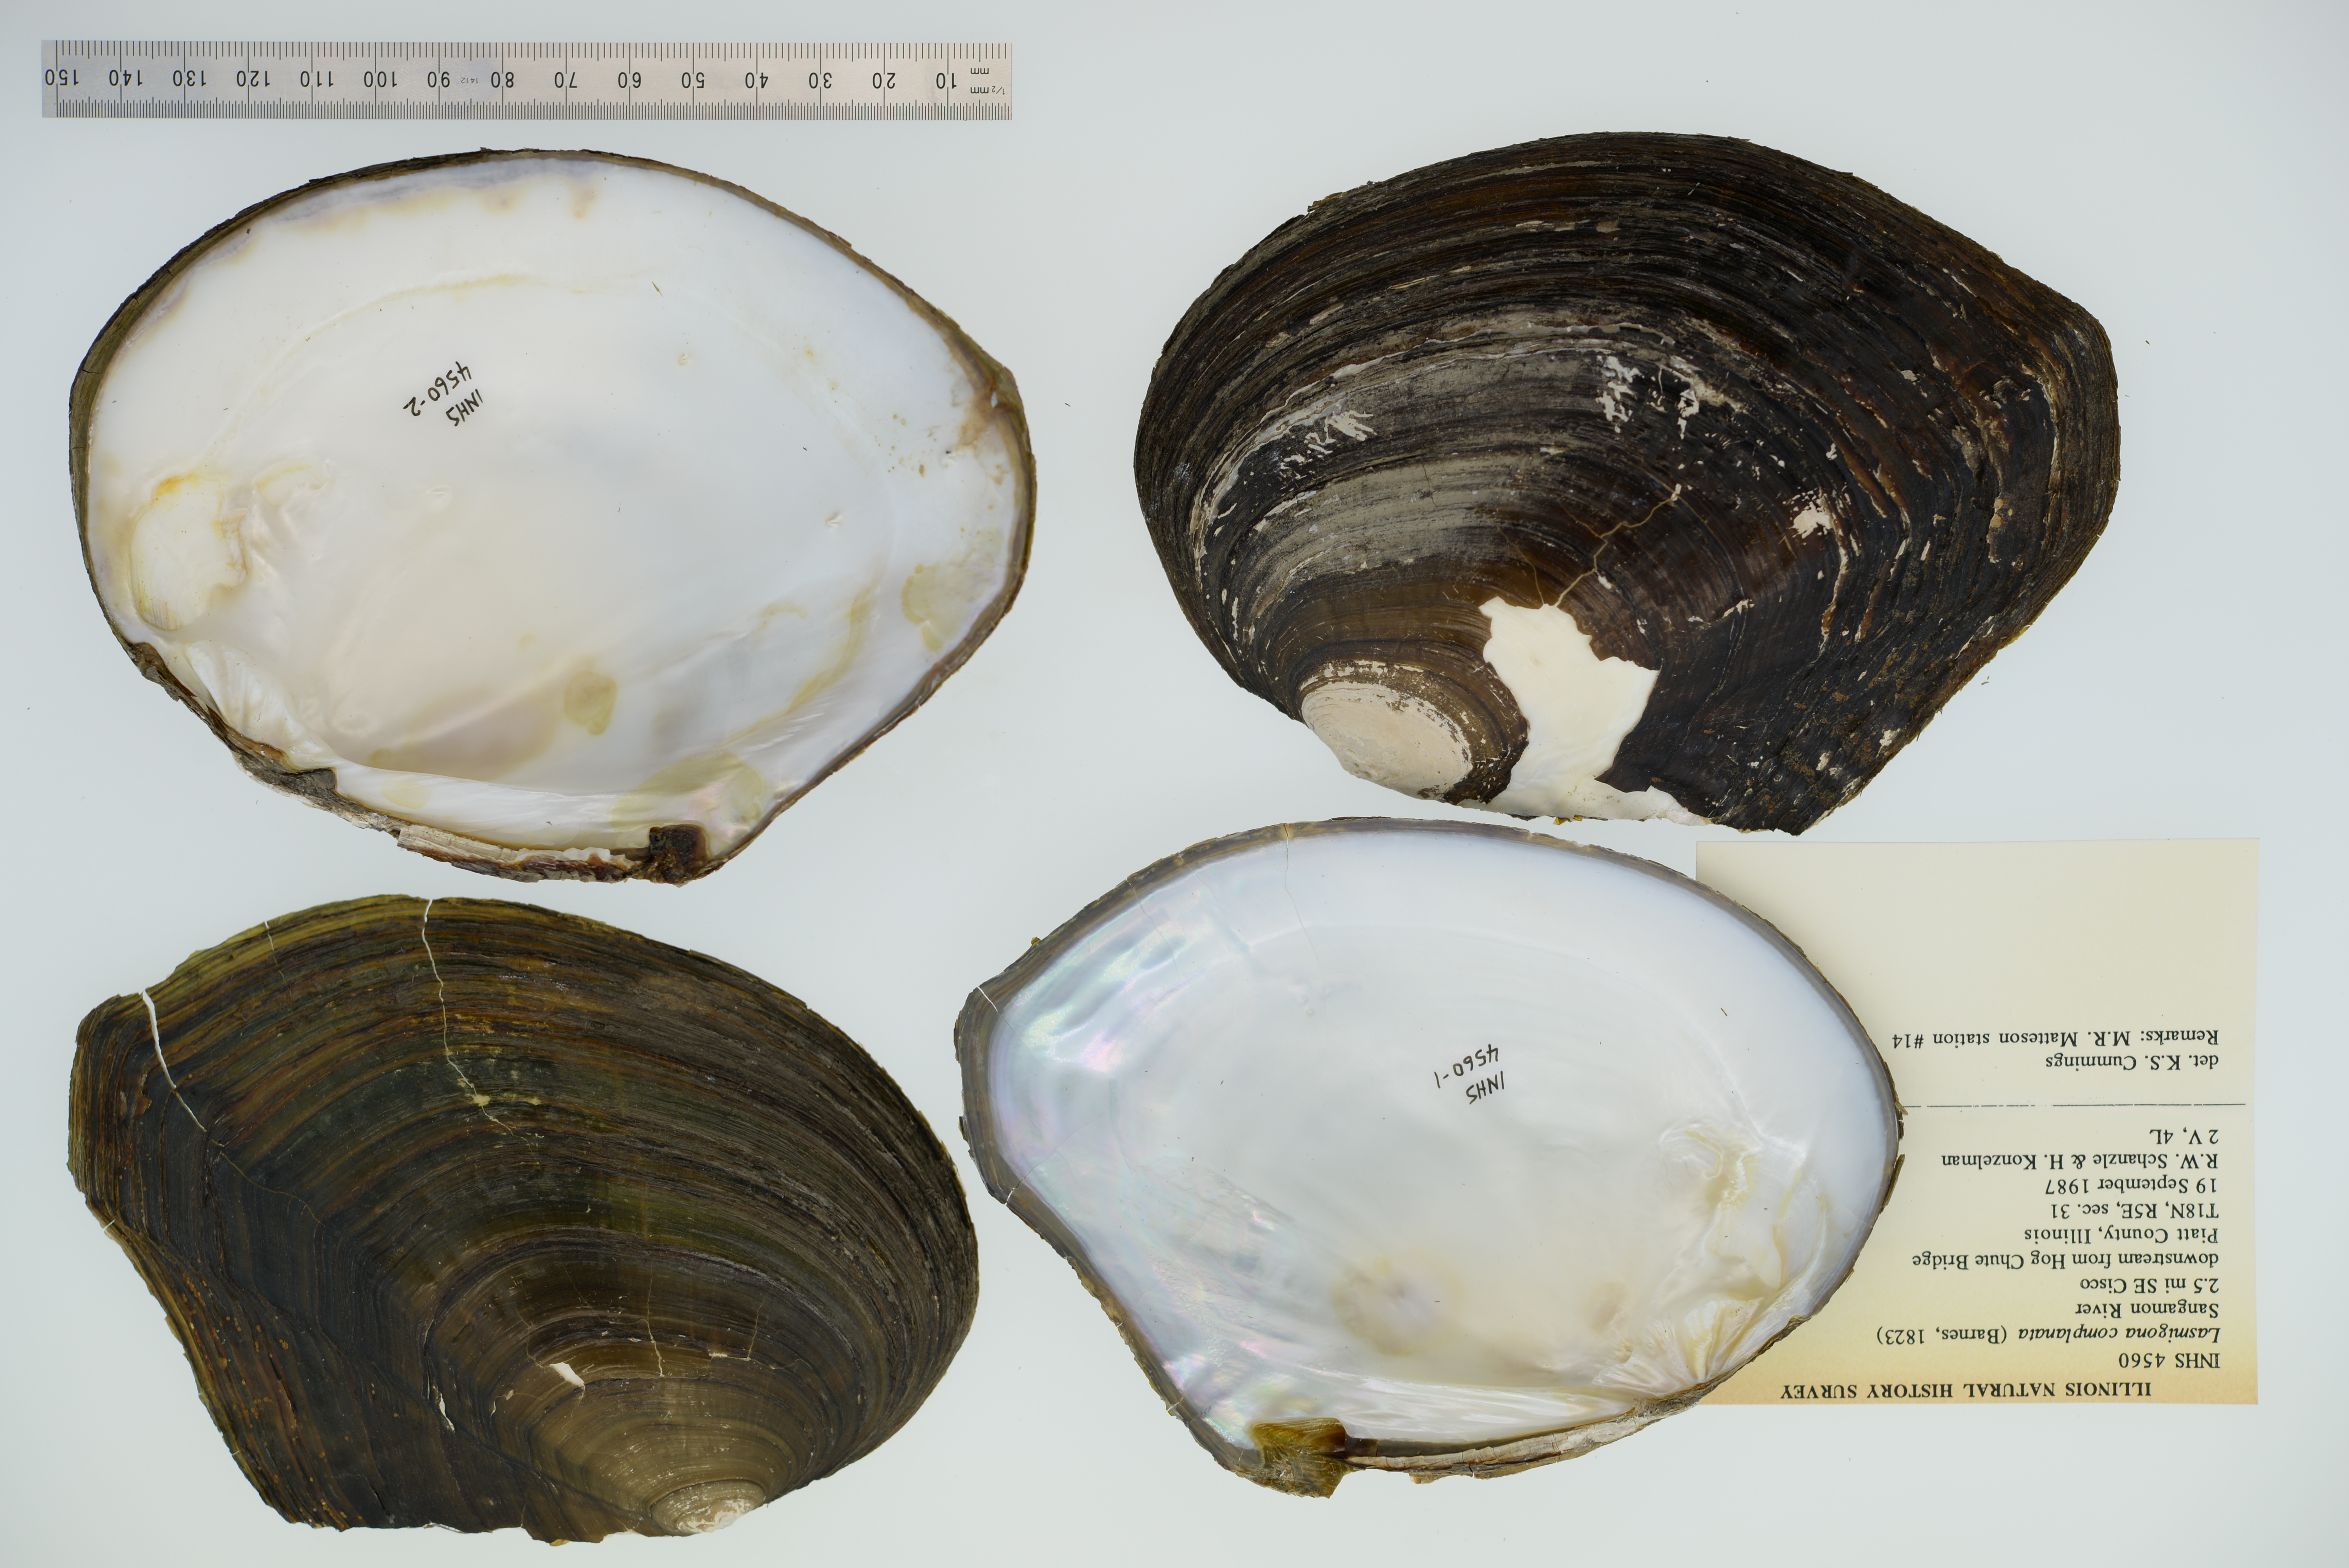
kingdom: Animalia
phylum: Mollusca
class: Bivalvia
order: Unionida
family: Unionidae
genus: Lasmigona
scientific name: Lasmigona complanata
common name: White heelsplitter
